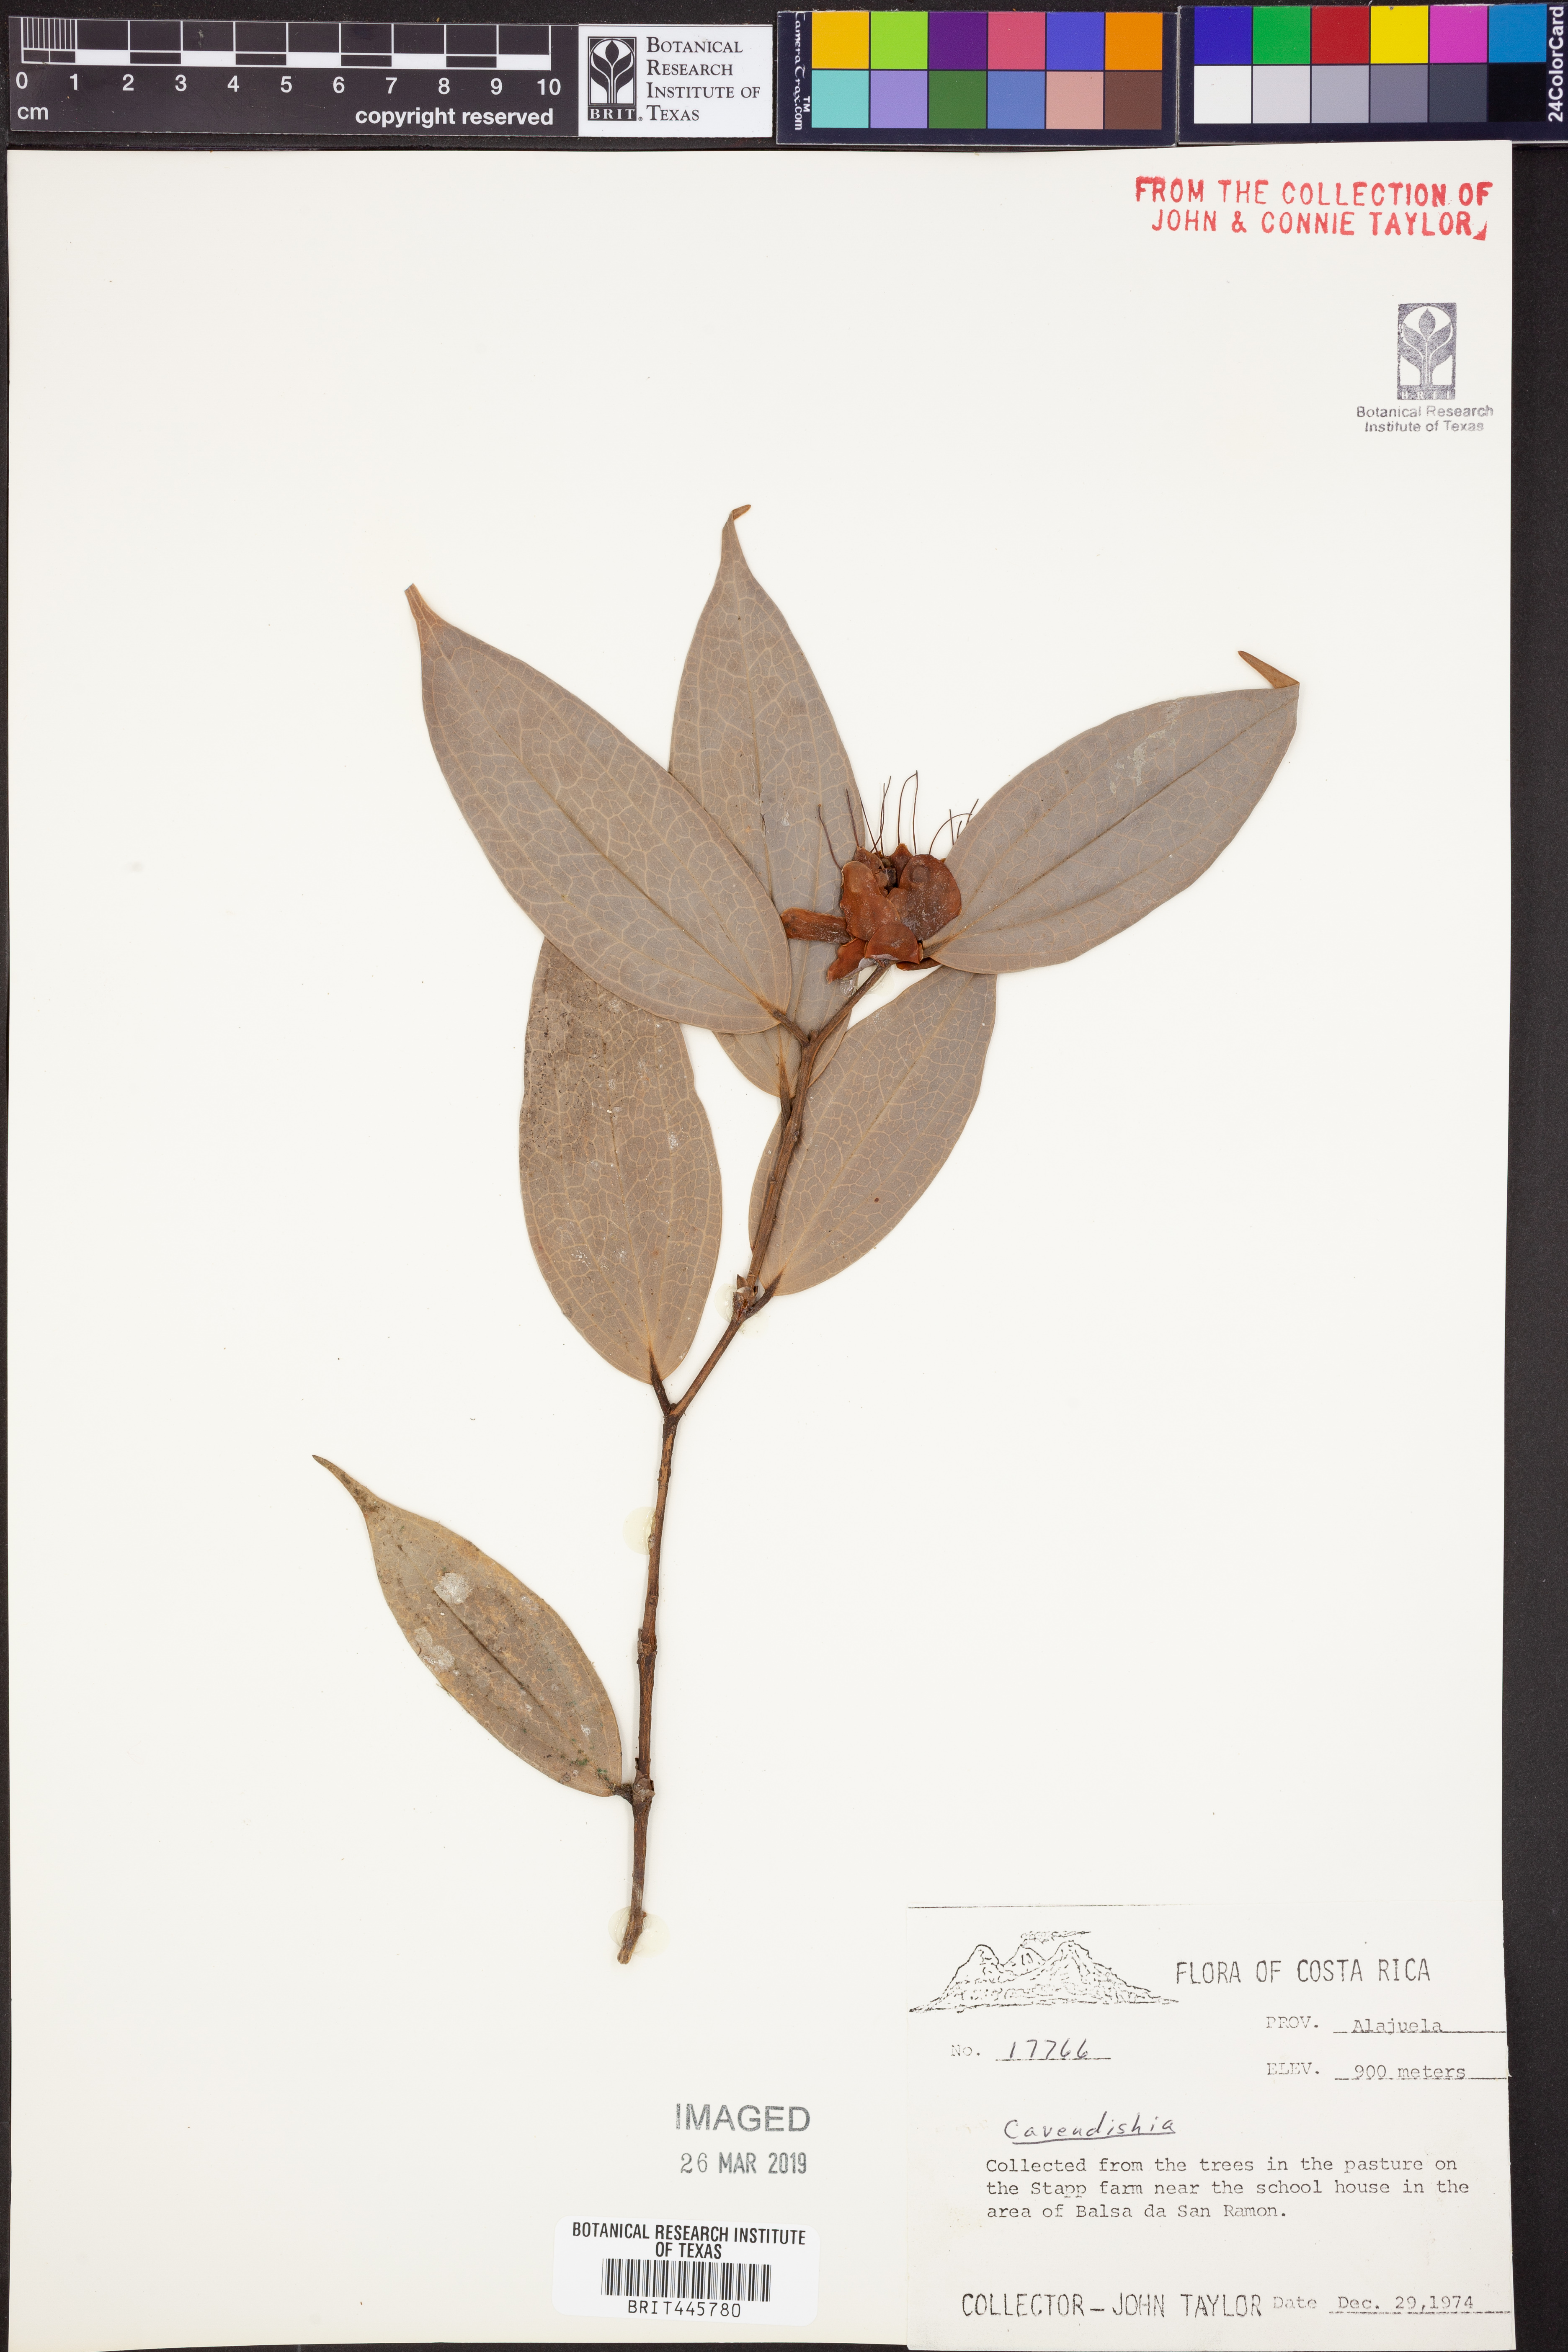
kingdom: Plantae
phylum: Tracheophyta
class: Magnoliopsida
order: Ericales
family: Ericaceae
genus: Cavendishia
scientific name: Cavendishia
